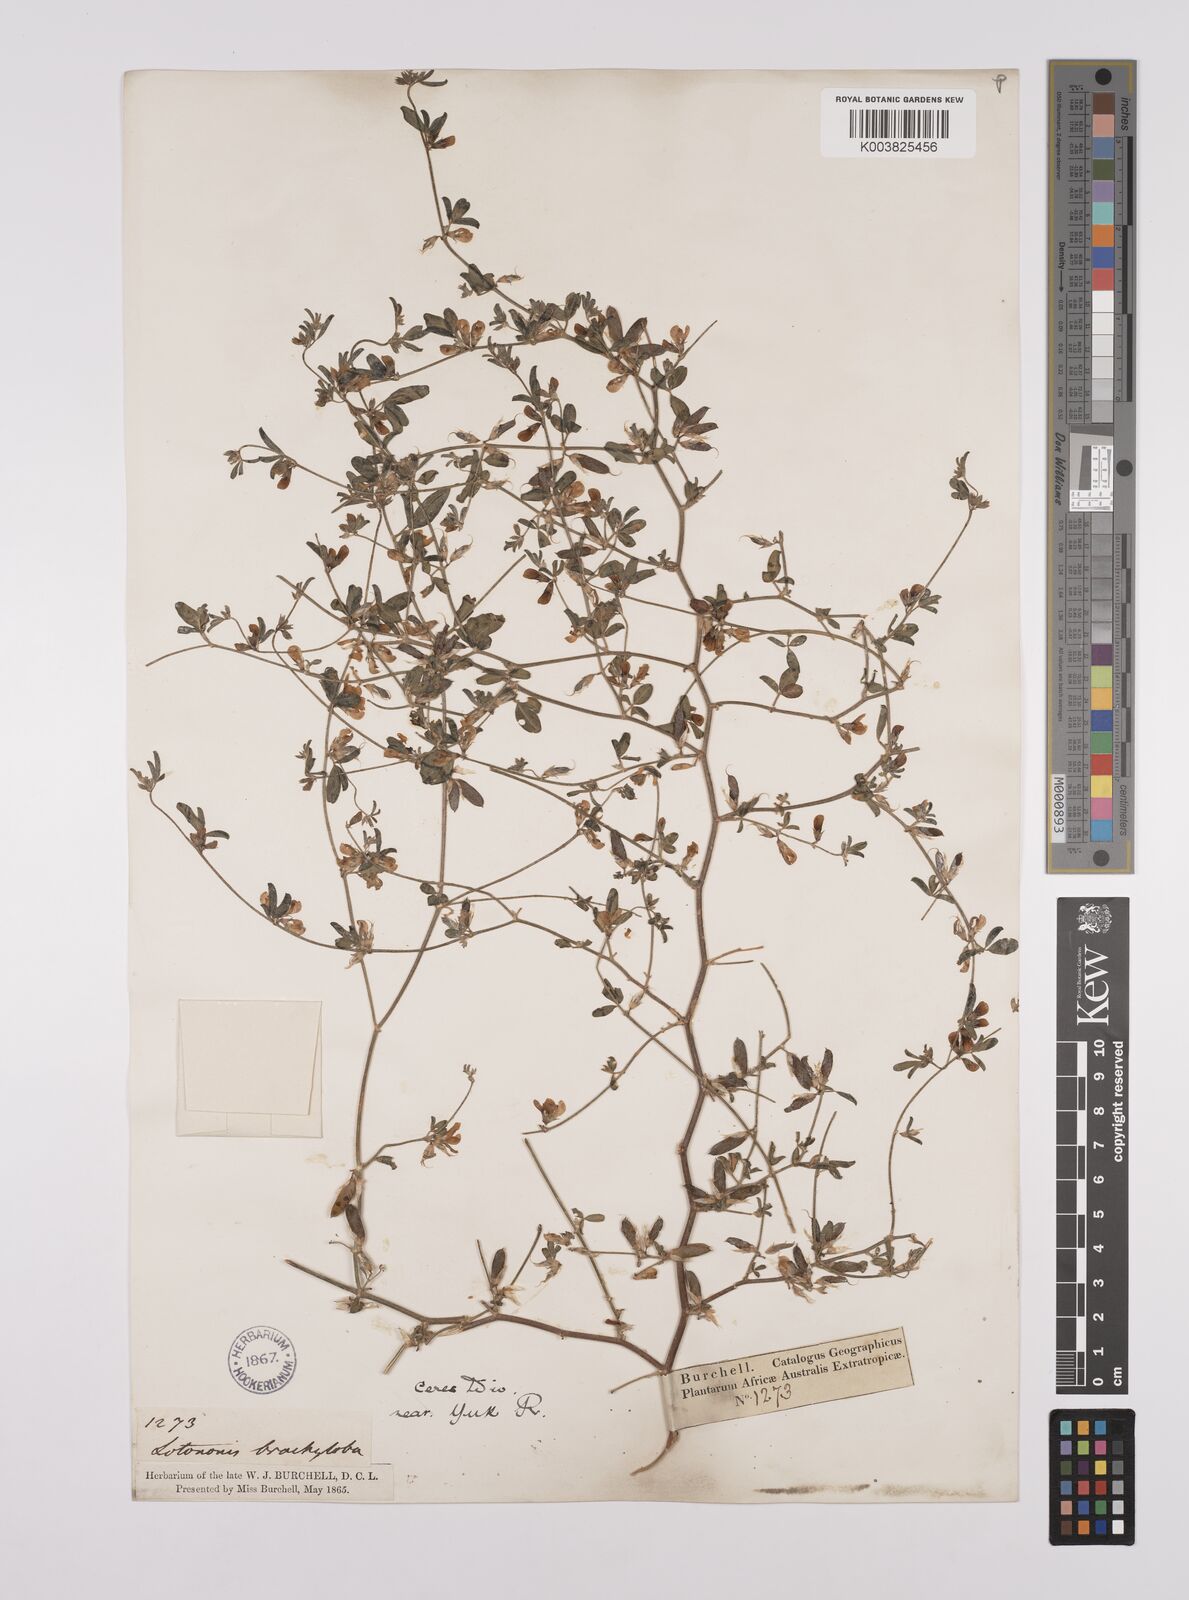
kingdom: Plantae
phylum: Tracheophyta
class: Magnoliopsida
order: Fabales
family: Fabaceae
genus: Lotononis
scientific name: Lotononis parviflora
